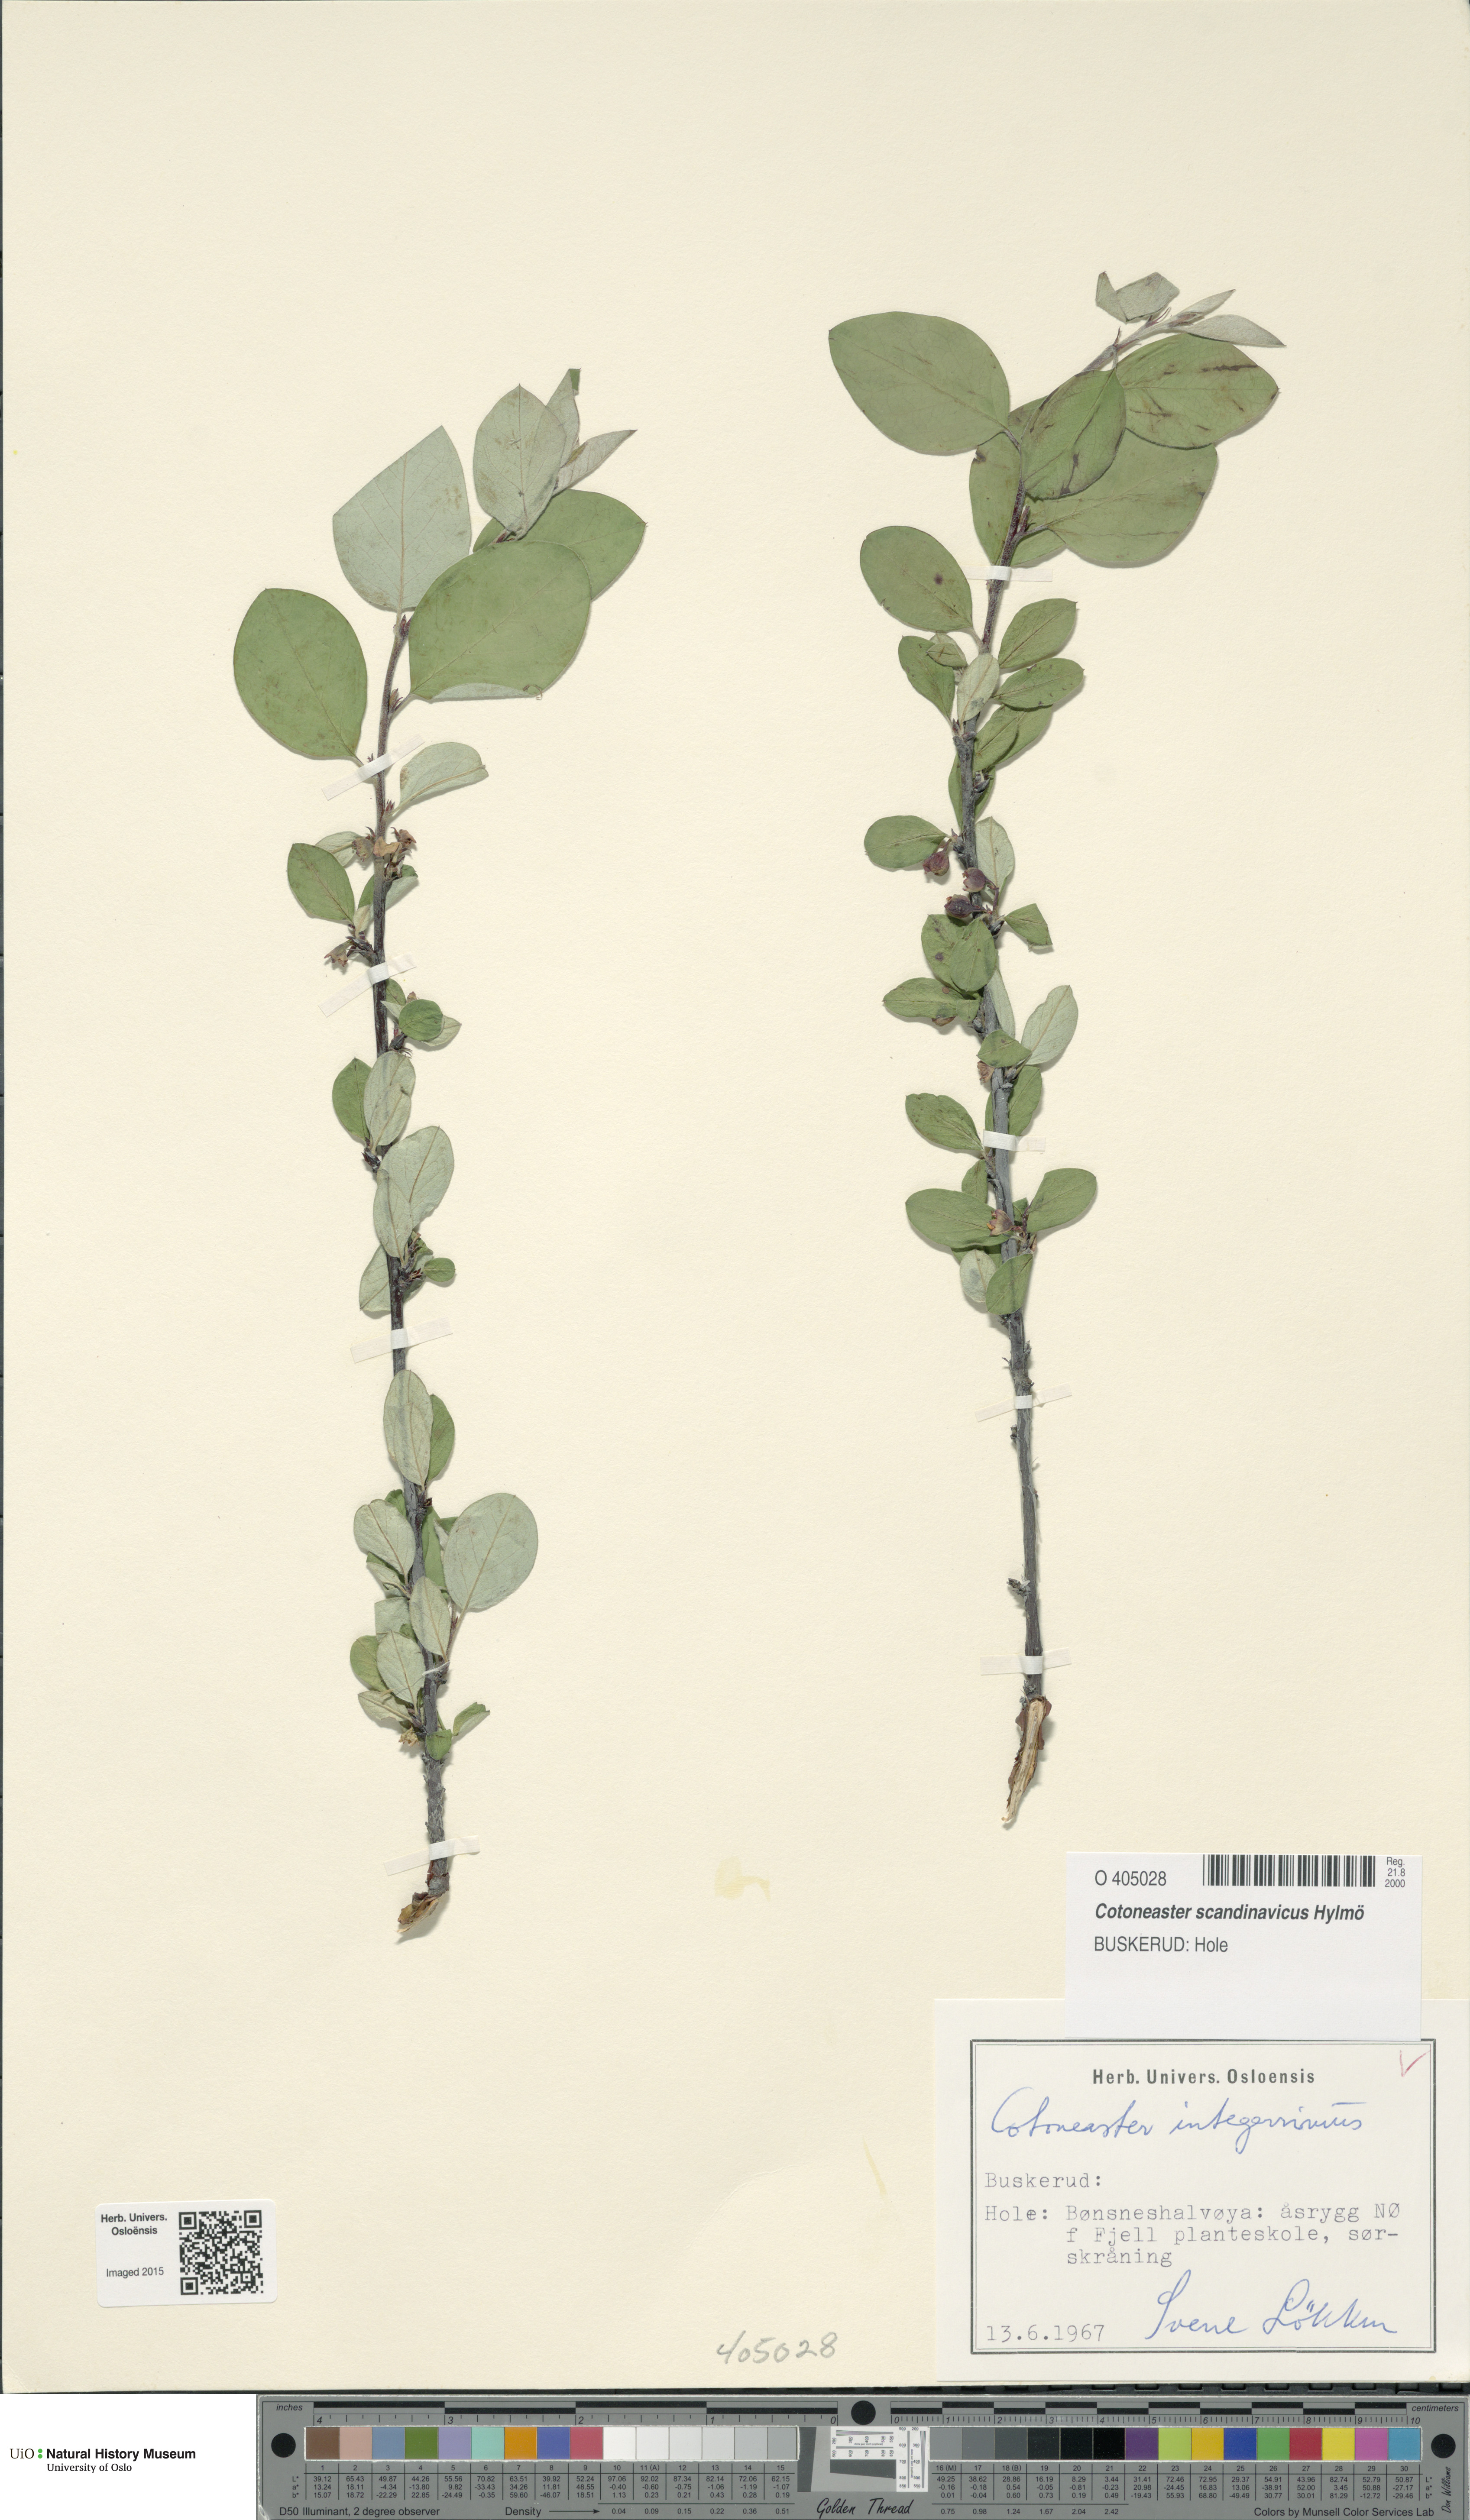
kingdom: Plantae
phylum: Tracheophyta
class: Magnoliopsida
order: Rosales
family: Rosaceae
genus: Cotoneaster
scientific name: Cotoneaster integerrimus
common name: Wild cotoneaster
